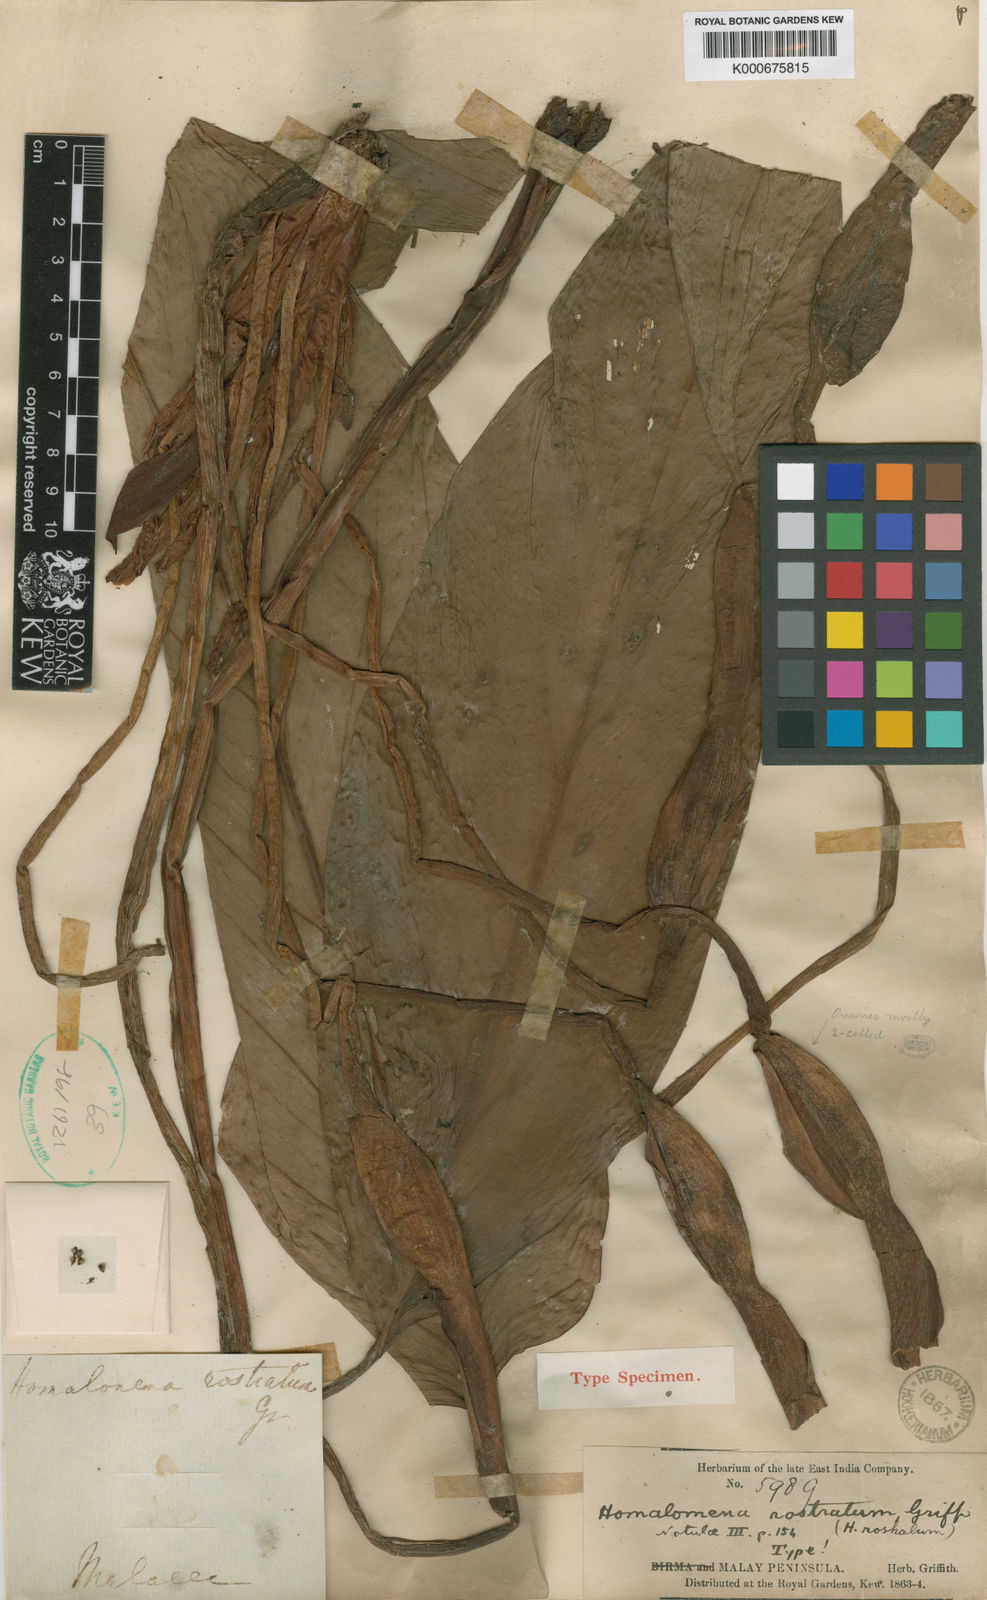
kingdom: Plantae
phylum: Tracheophyta
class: Liliopsida
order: Alismatales
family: Araceae
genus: Homalomena
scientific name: Homalomena rostrata
